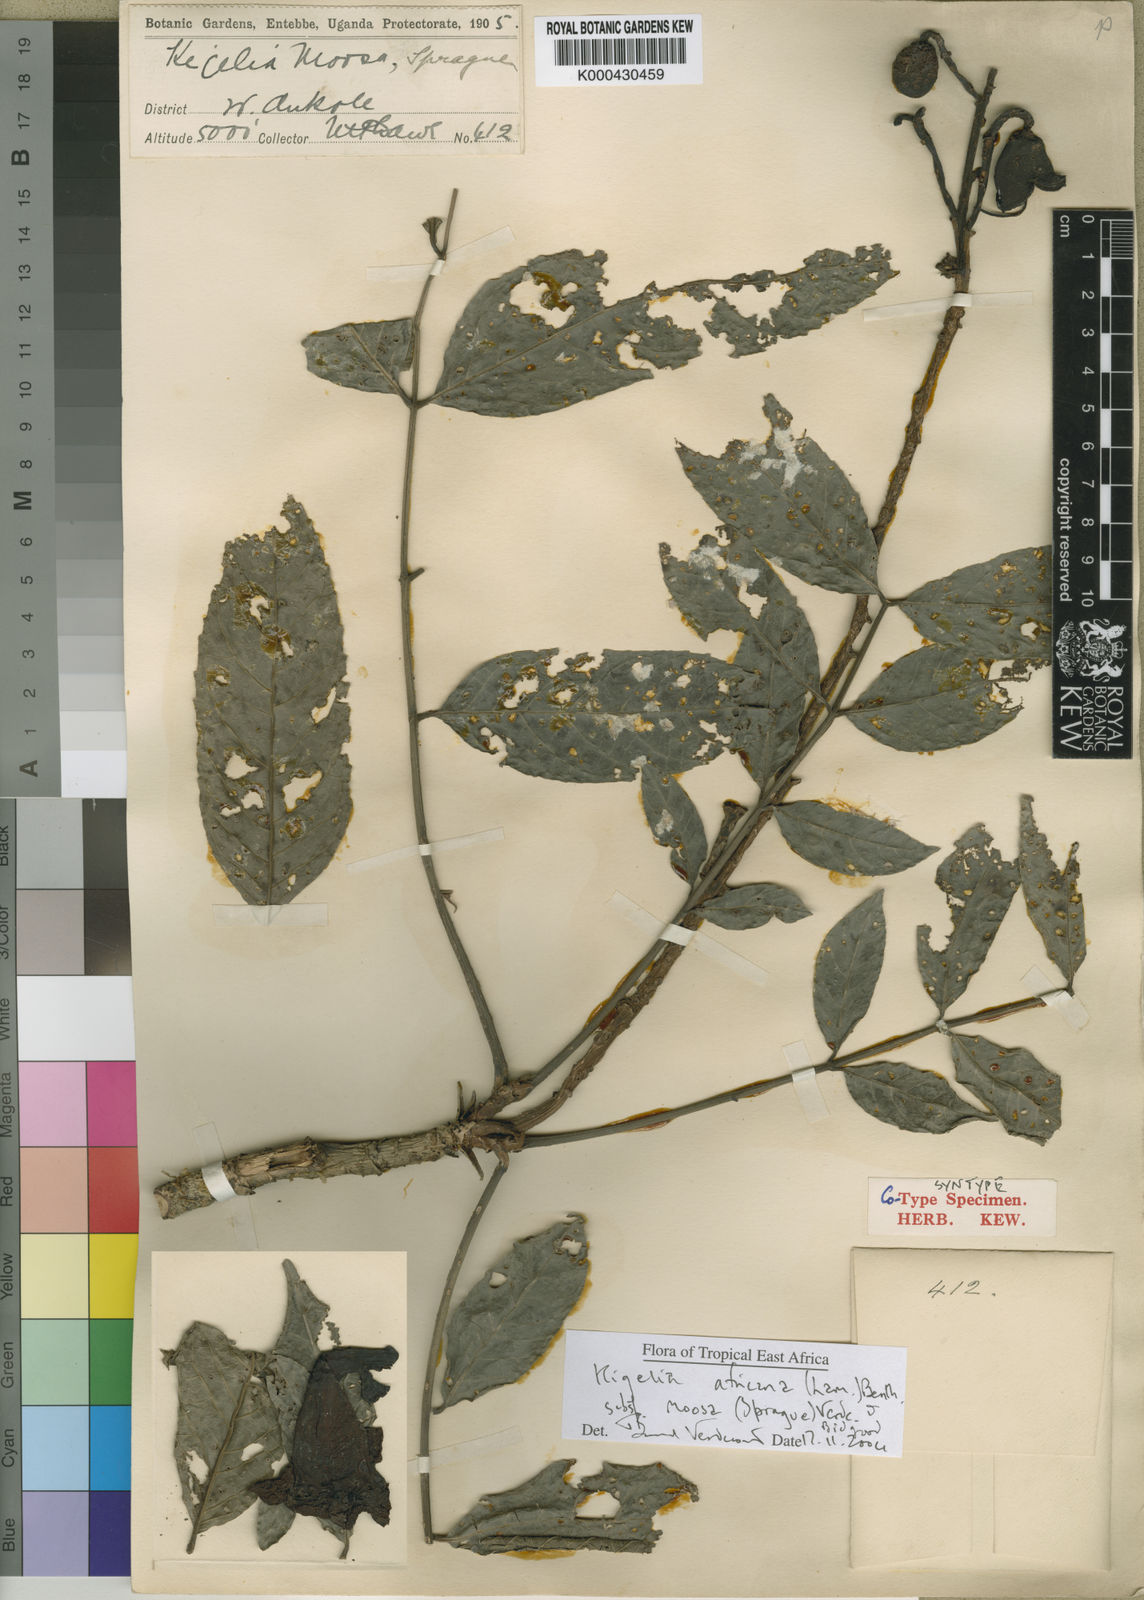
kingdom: Plantae
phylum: Tracheophyta
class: Magnoliopsida
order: Lamiales
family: Bignoniaceae
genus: Kigelia
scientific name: Kigelia africana
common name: Sausage tree
